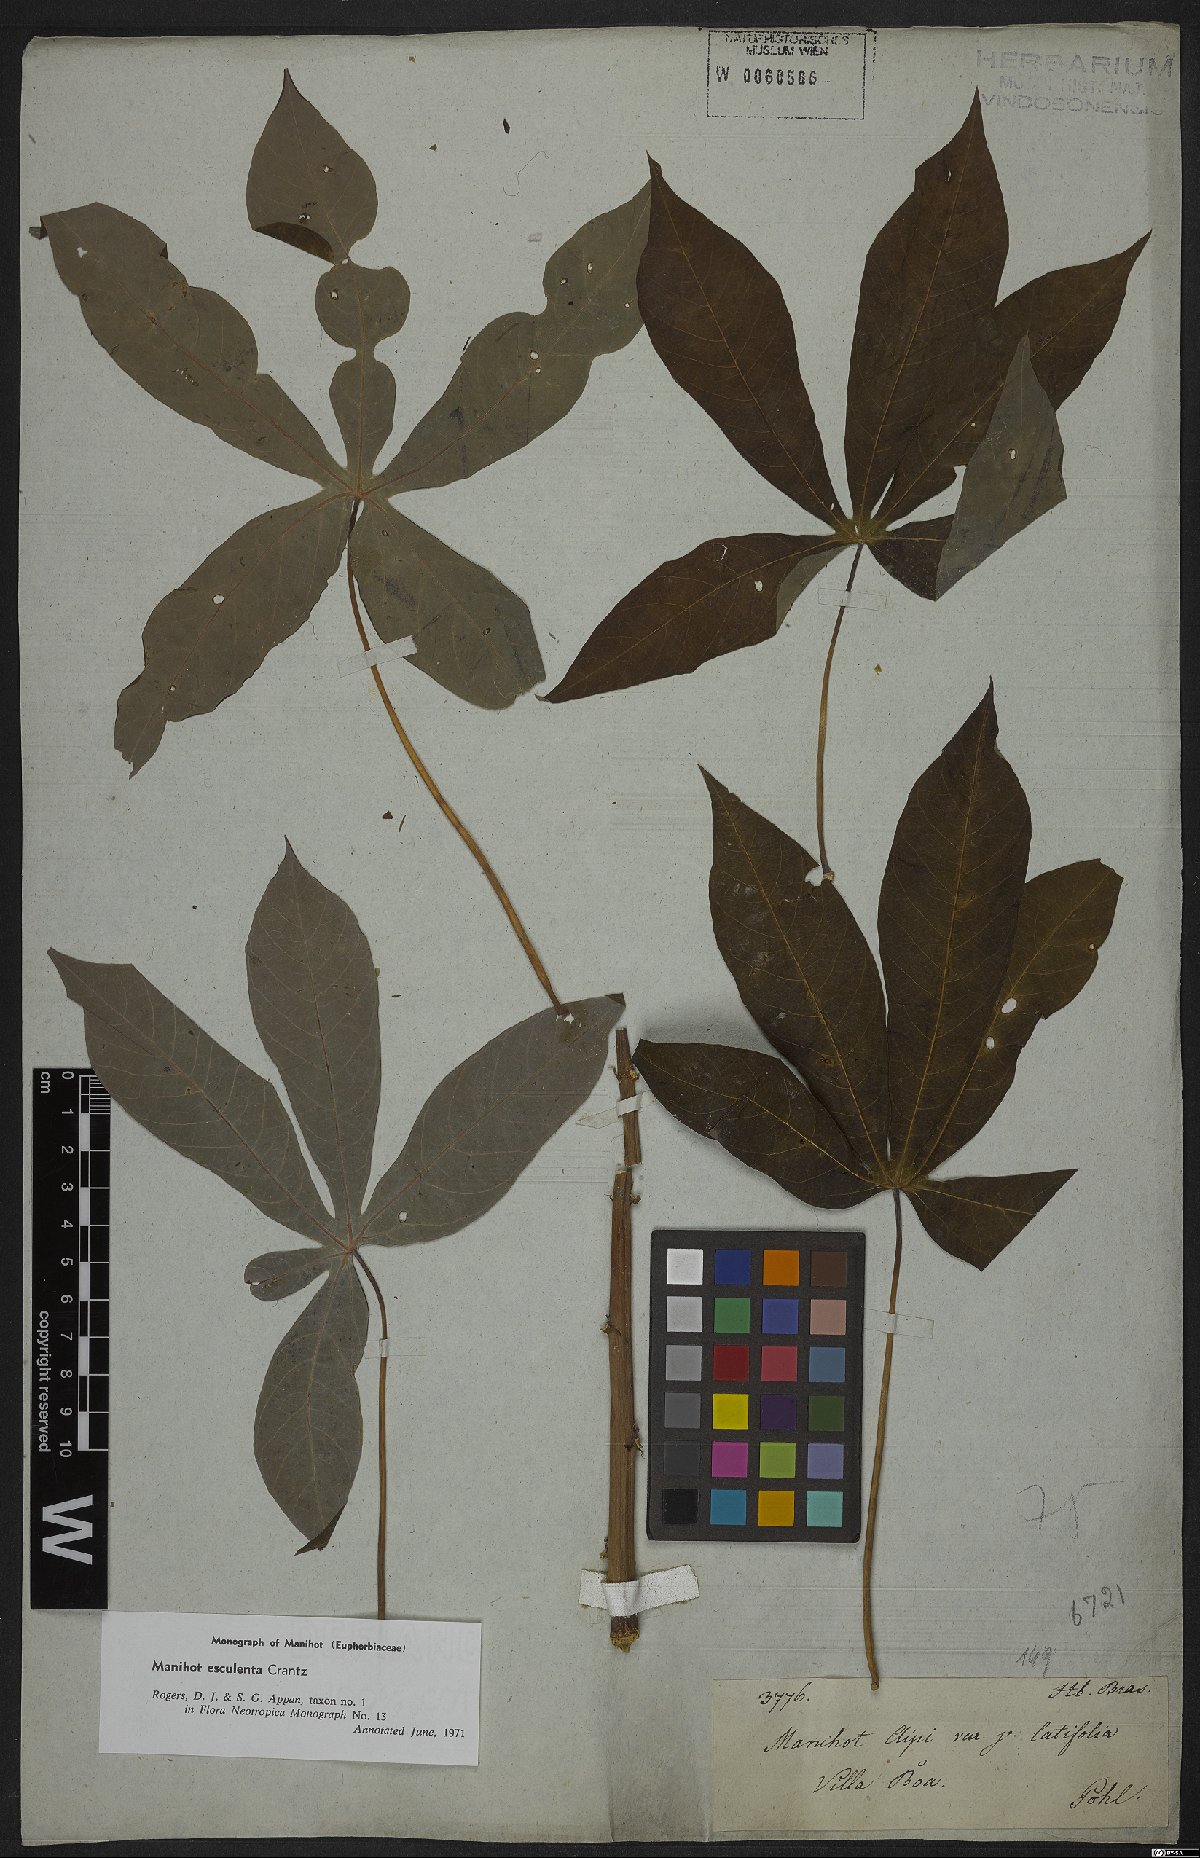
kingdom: Plantae
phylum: Tracheophyta
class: Magnoliopsida
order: Malpighiales
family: Euphorbiaceae
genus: Manihot
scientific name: Manihot esculenta
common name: Cassava
